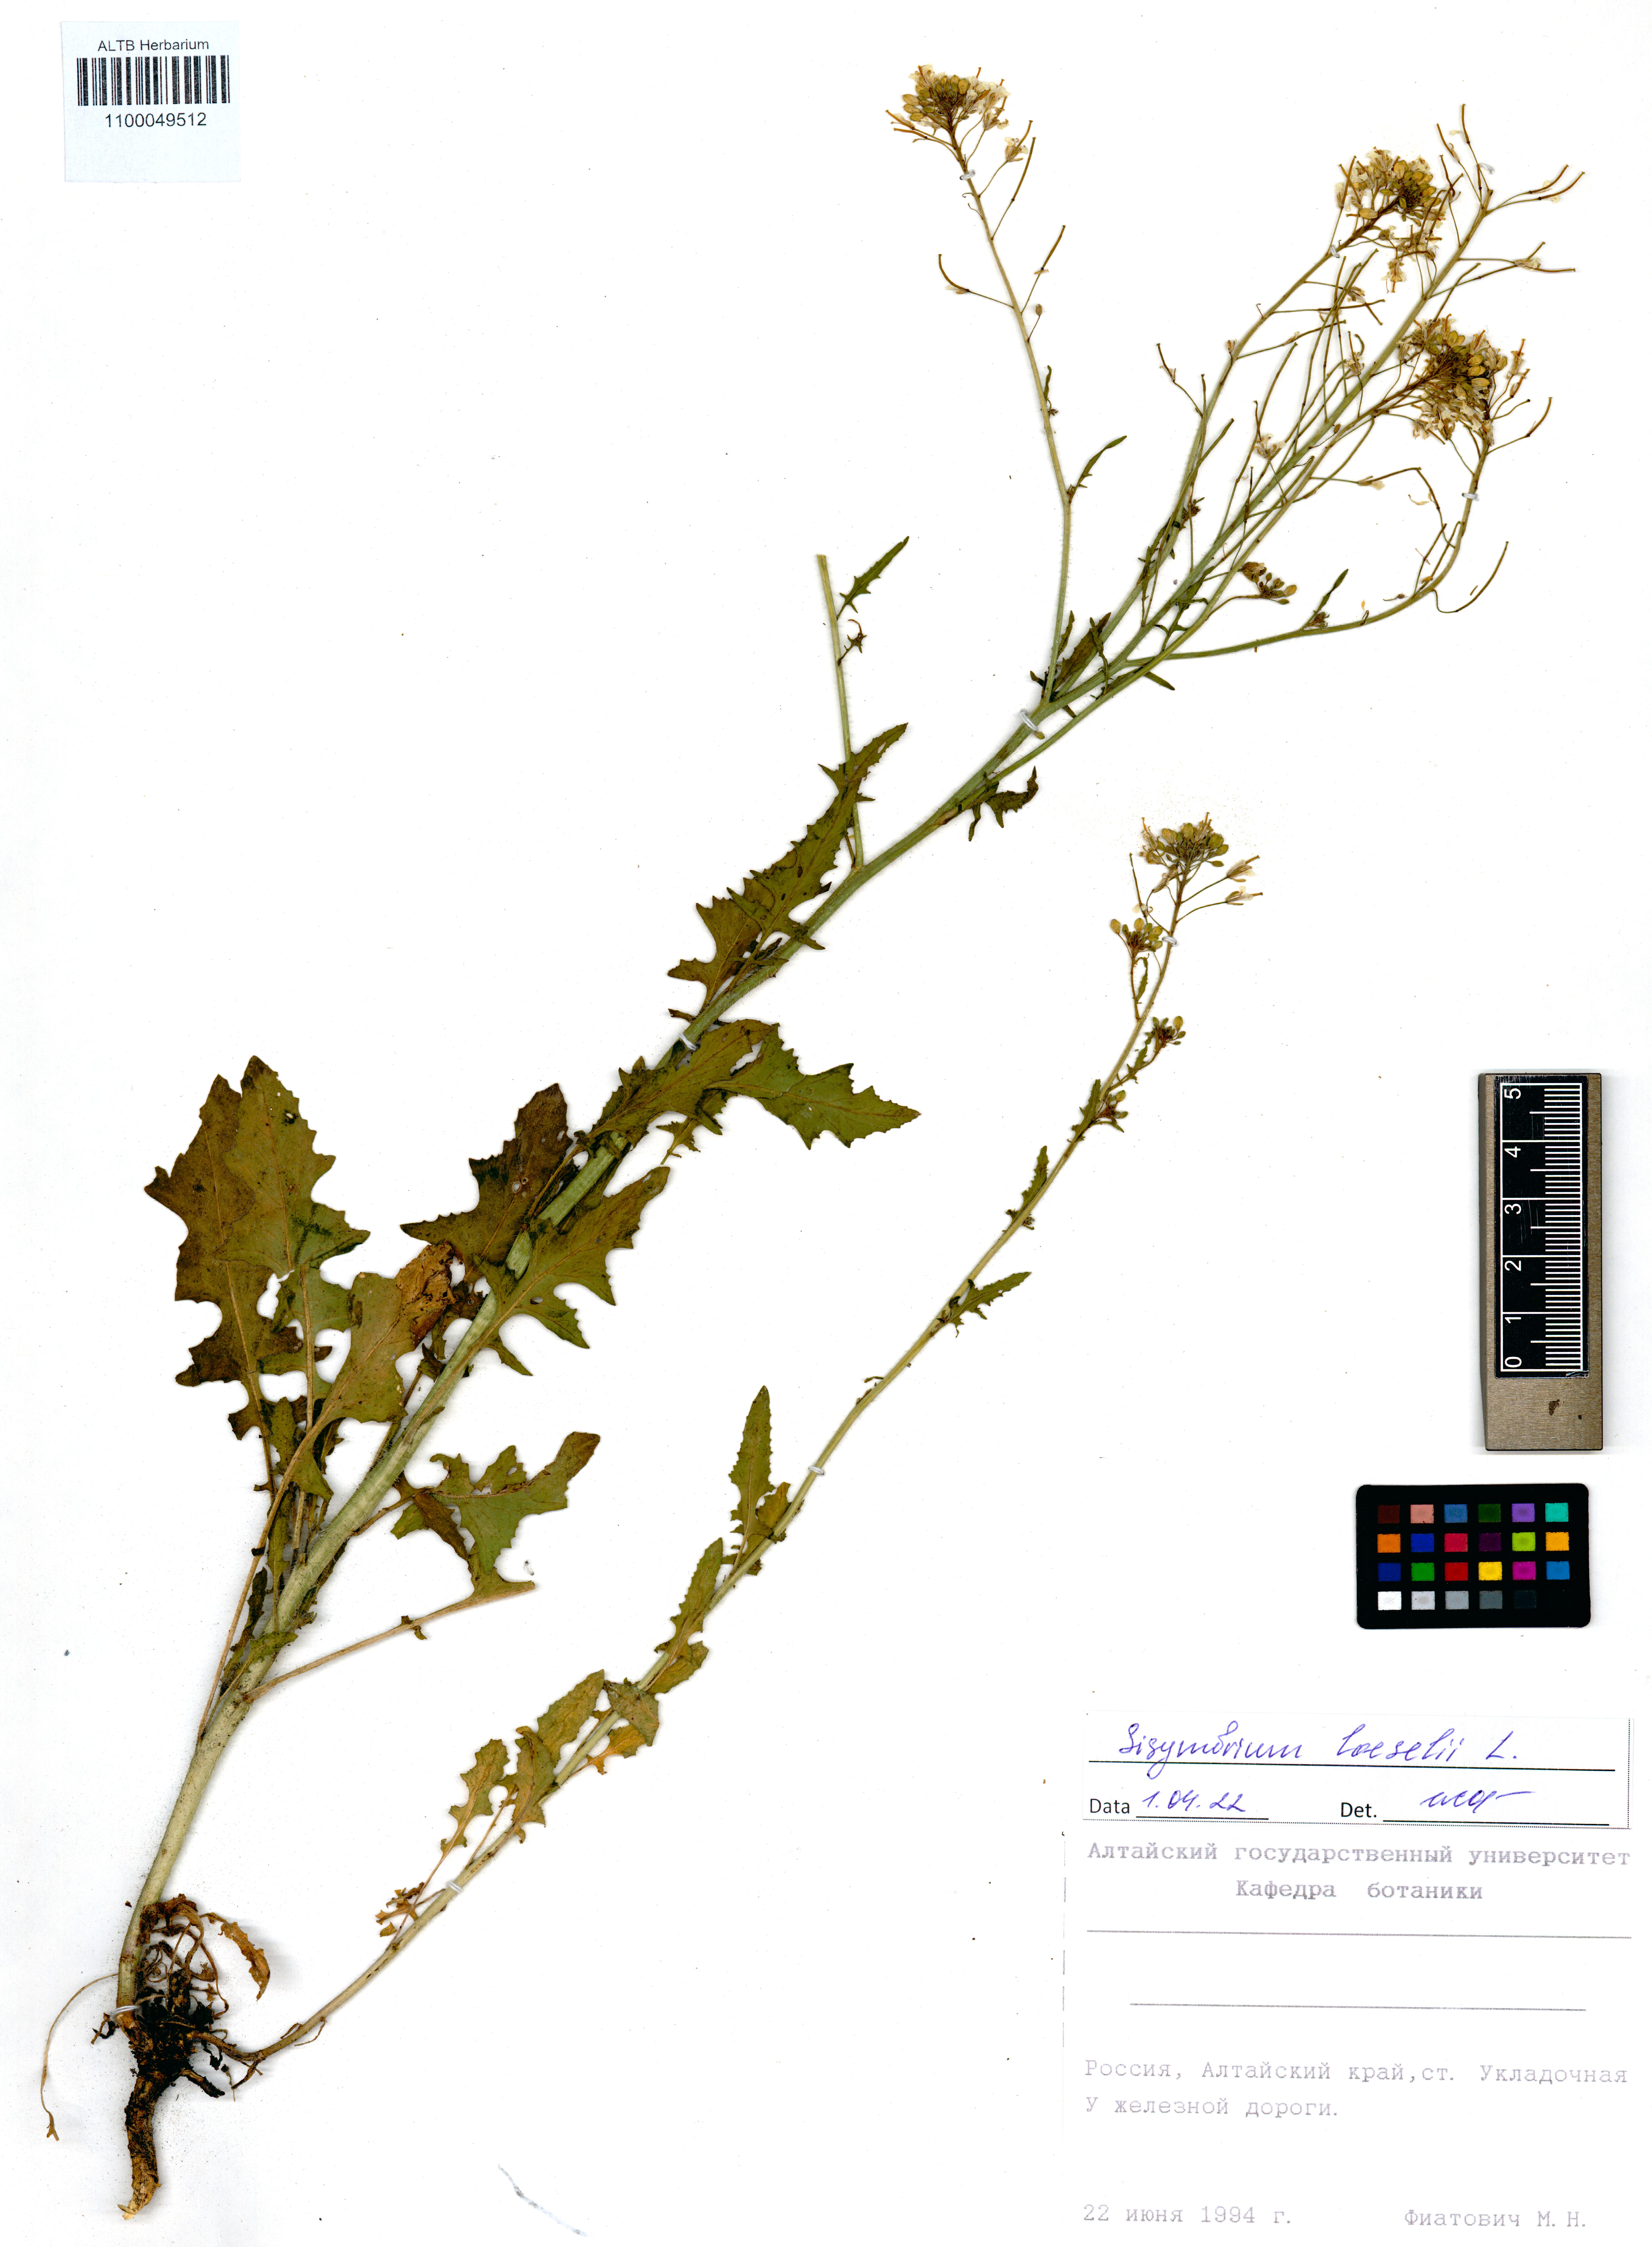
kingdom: Plantae
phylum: Tracheophyta
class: Magnoliopsida
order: Brassicales
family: Brassicaceae
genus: Sisymbrium
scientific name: Sisymbrium loeselii
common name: False london-rocket
